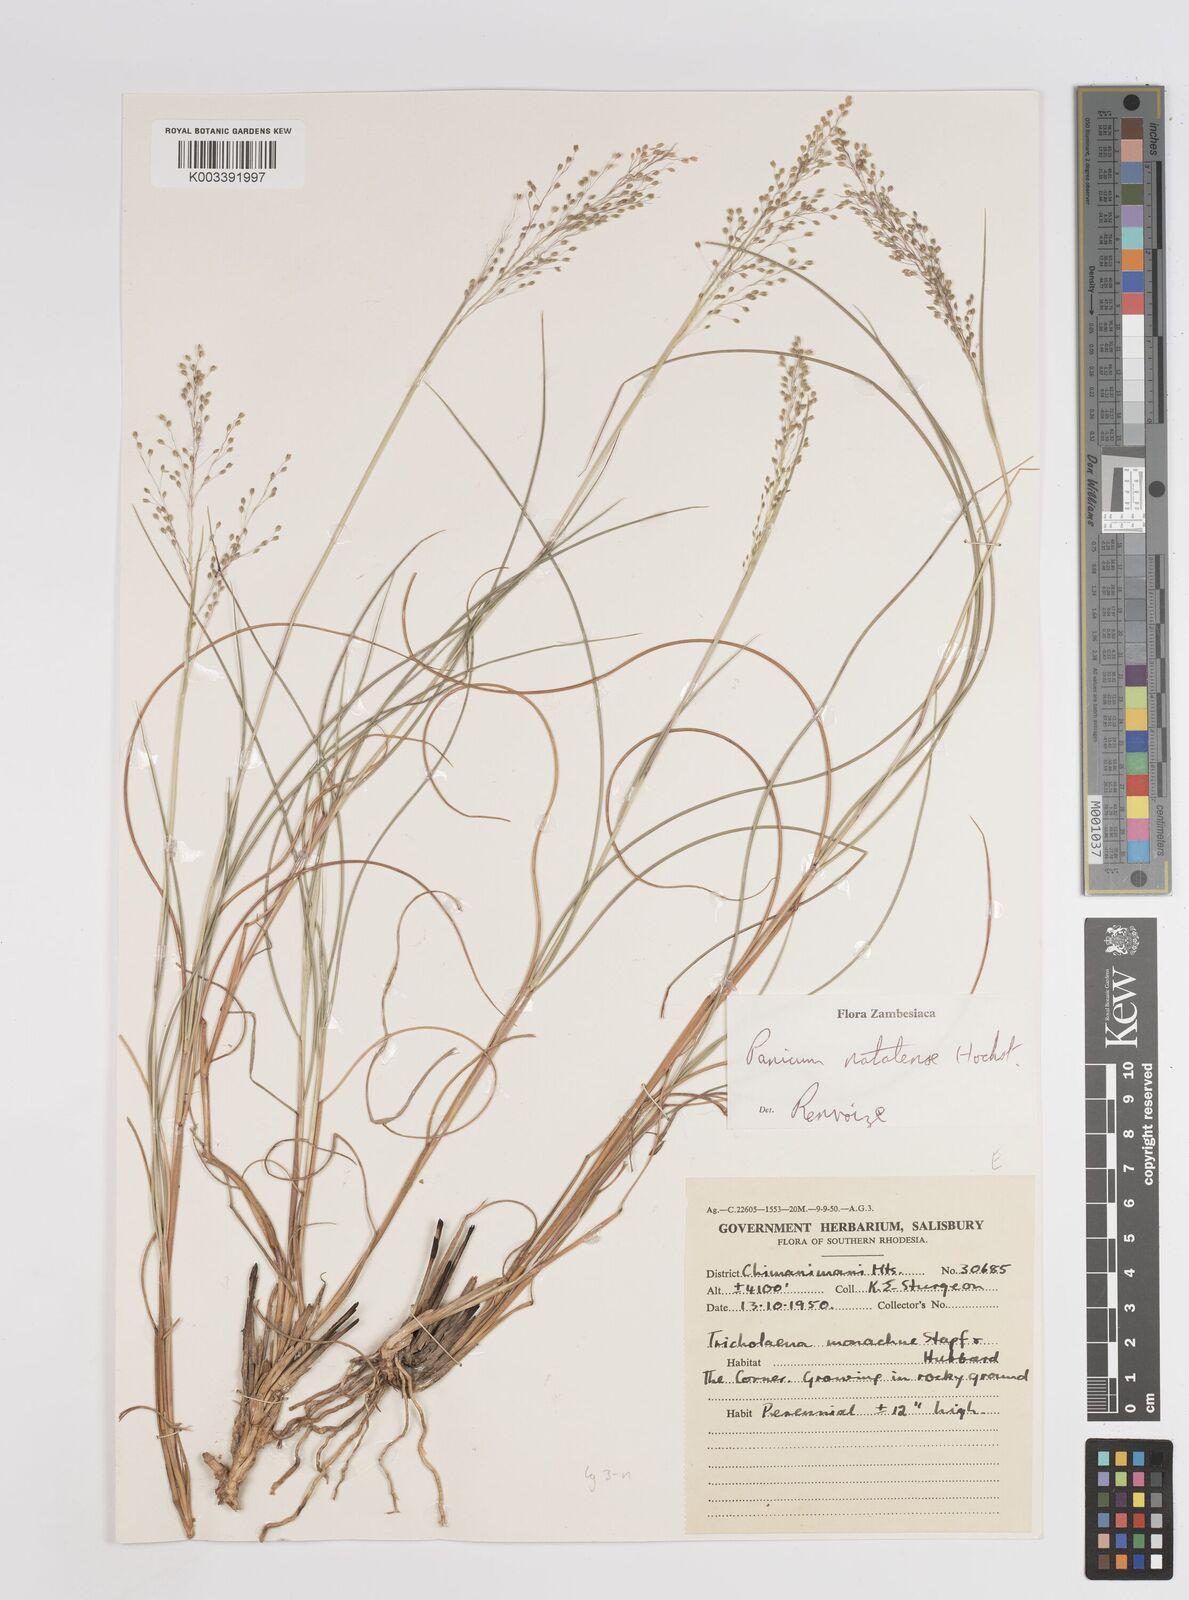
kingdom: Plantae
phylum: Tracheophyta
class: Liliopsida
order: Poales
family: Poaceae
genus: Trichanthecium
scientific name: Trichanthecium natalense
